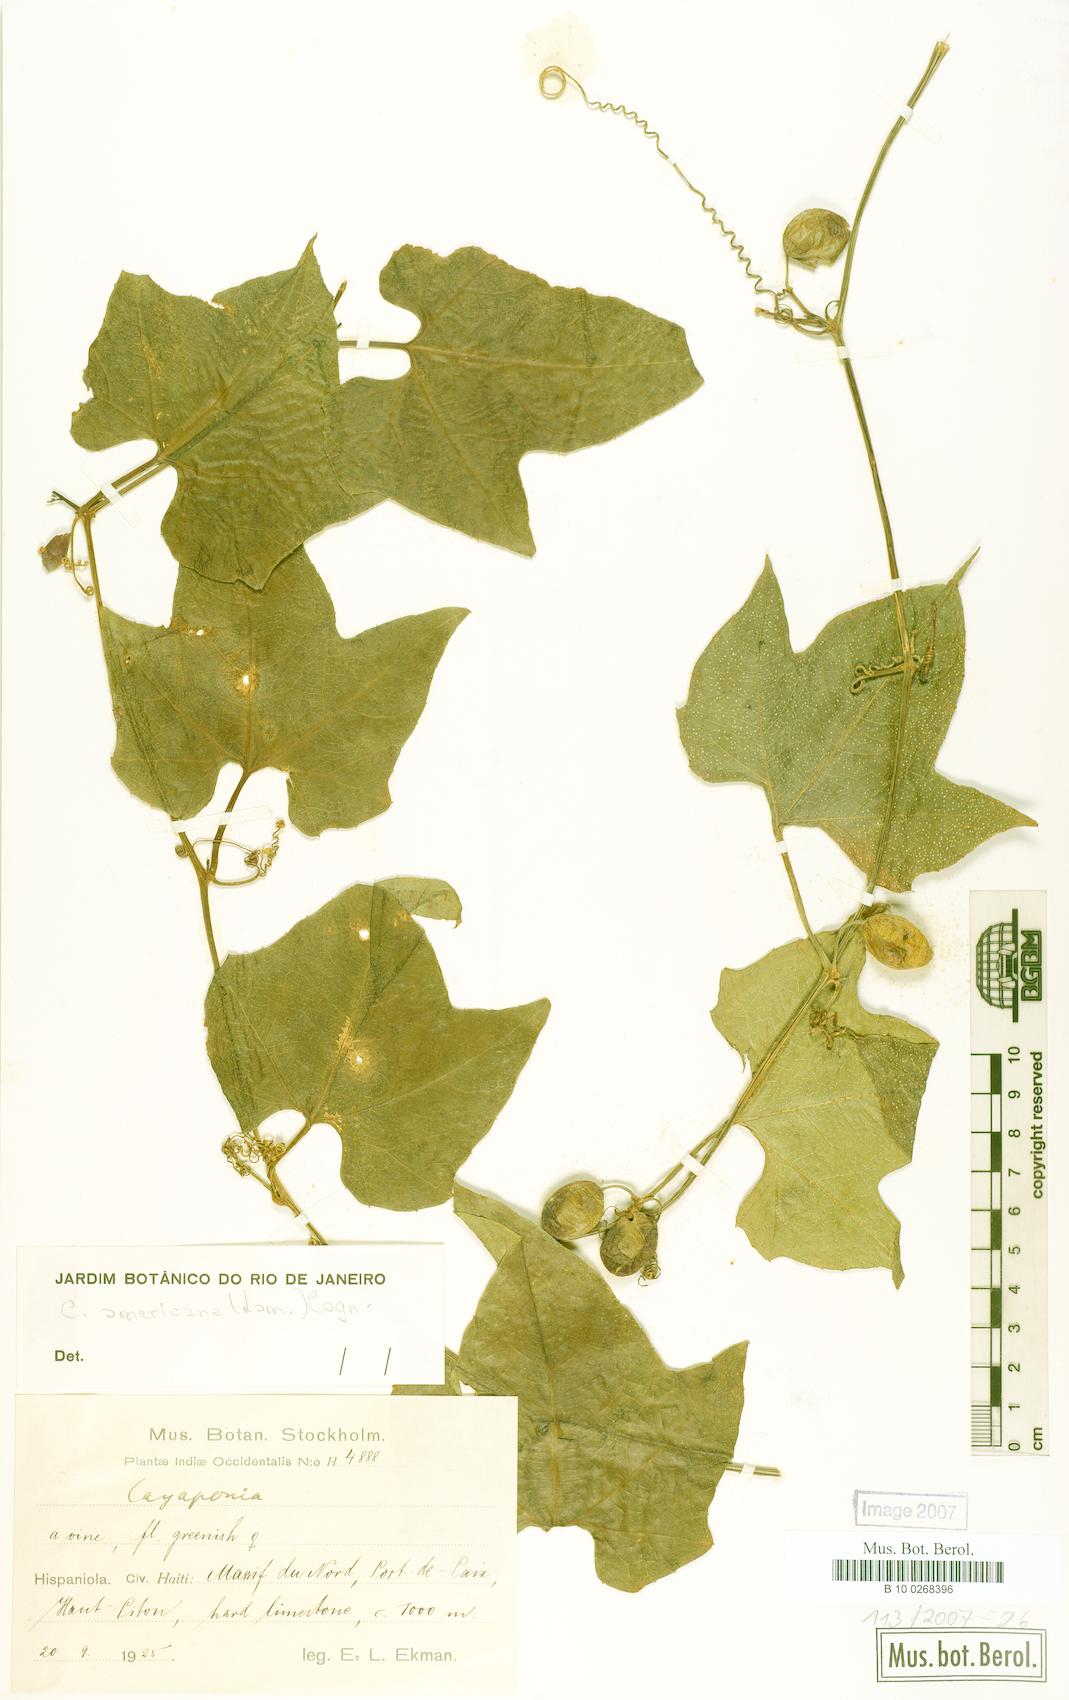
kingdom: Plantae
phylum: Tracheophyta
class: Magnoliopsida
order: Cucurbitales
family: Cucurbitaceae
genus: Cayaponia
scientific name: Cayaponia americana
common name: American melonleaf
